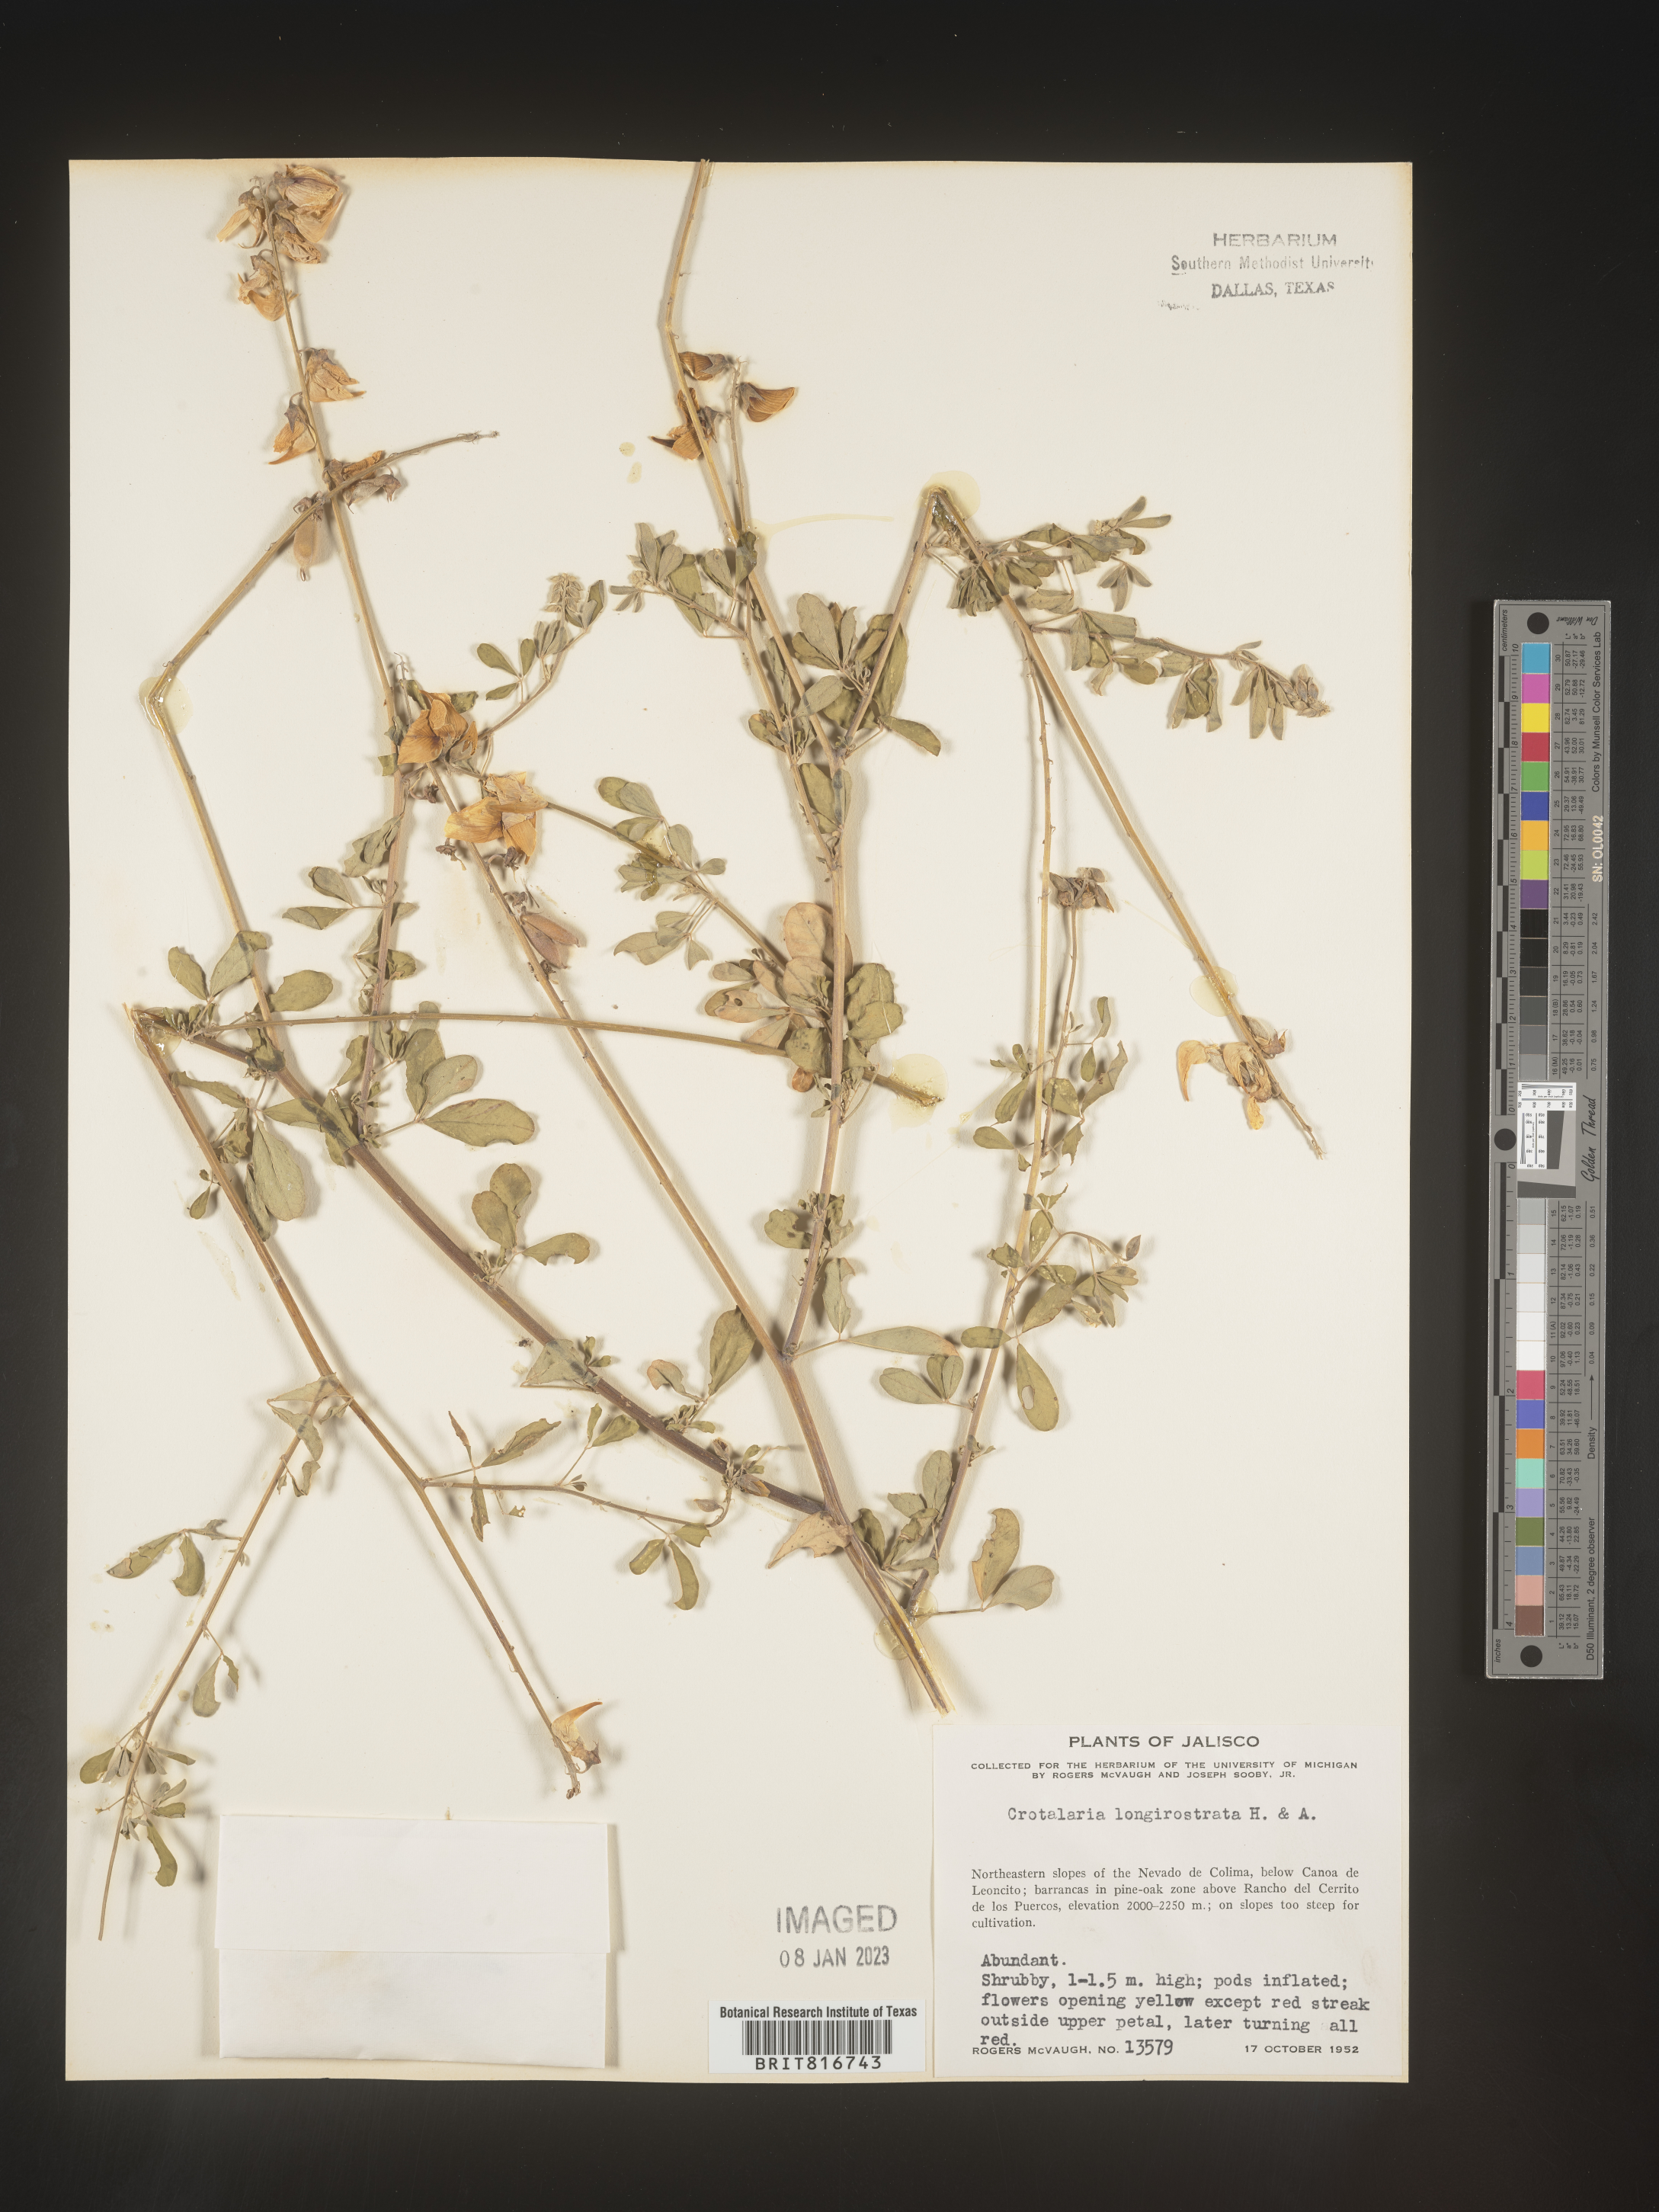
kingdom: Plantae
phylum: Tracheophyta
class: Magnoliopsida
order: Fabales
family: Fabaceae
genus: Crotalaria
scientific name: Crotalaria
